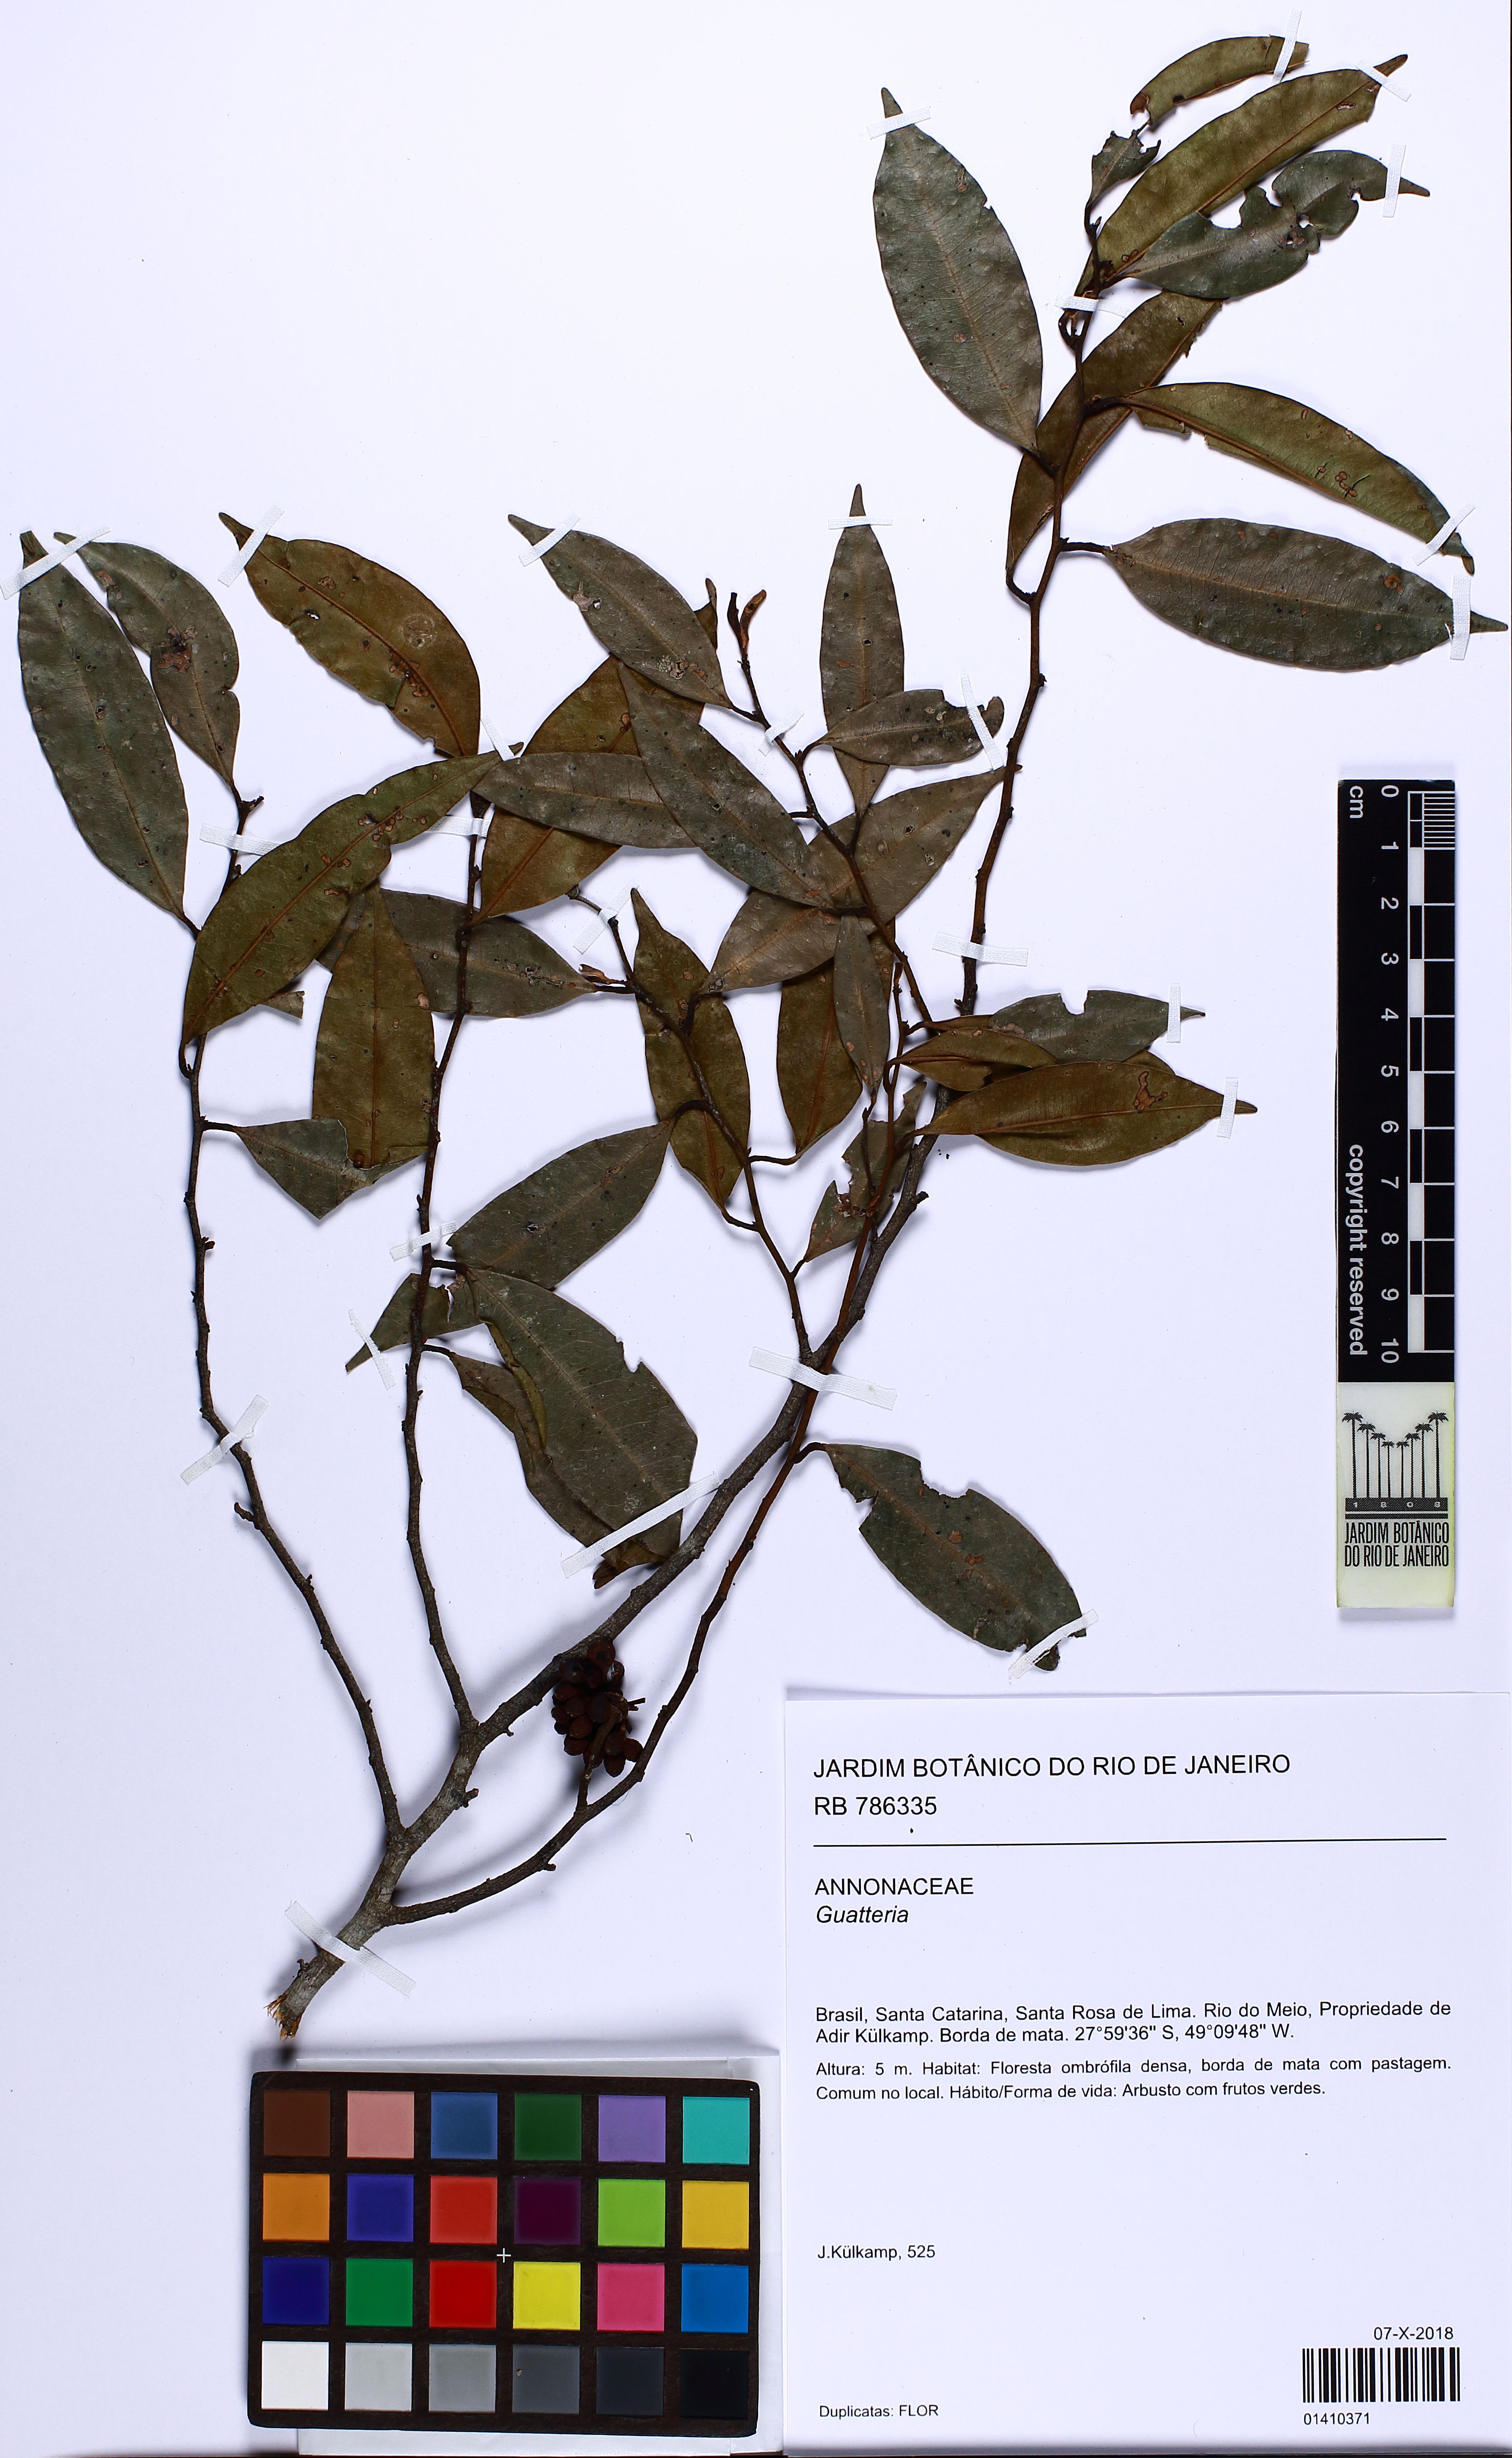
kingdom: Plantae
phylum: Tracheophyta
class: Magnoliopsida
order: Magnoliales
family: Annonaceae
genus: Guatteria
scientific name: Guatteria
